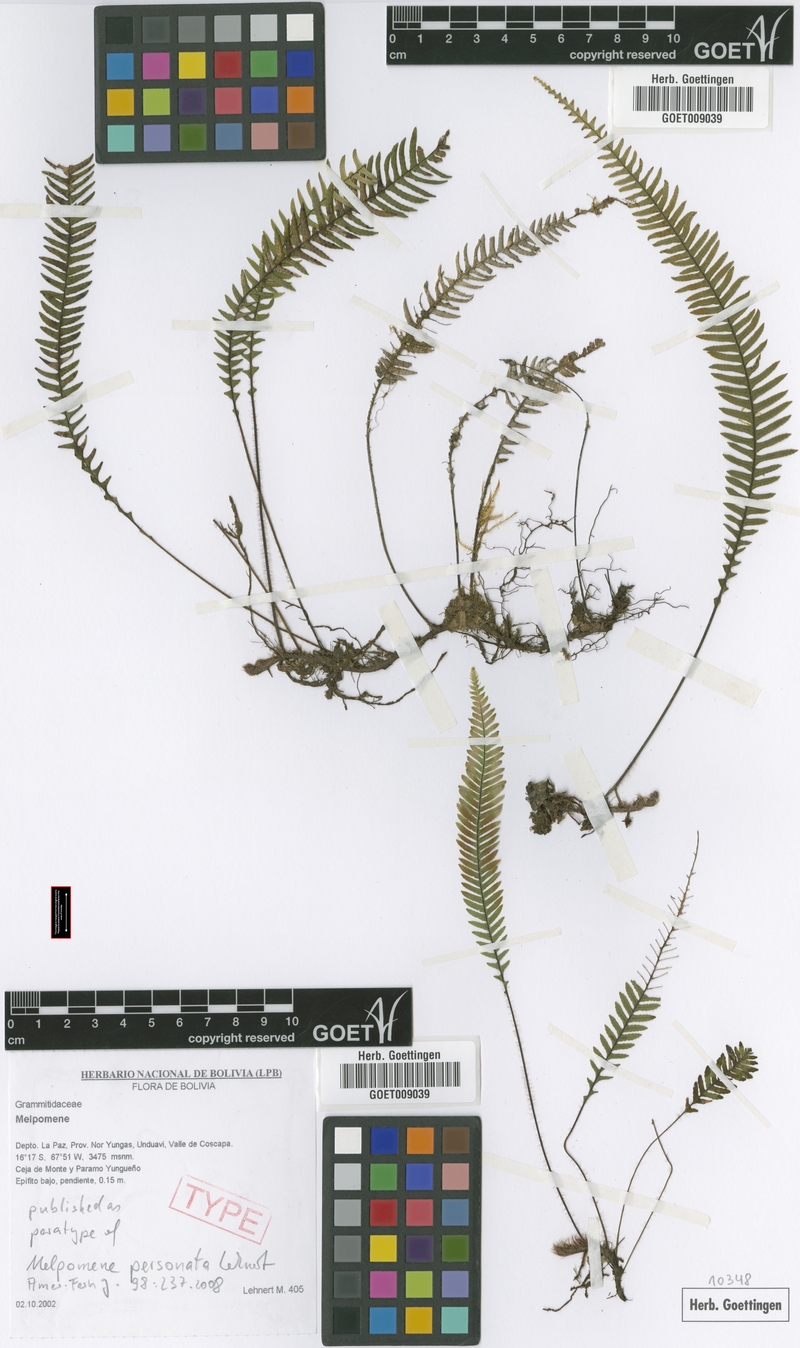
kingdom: Plantae
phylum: Tracheophyta
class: Polypodiopsida
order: Polypodiales
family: Polypodiaceae
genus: Melpomene
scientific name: Melpomene personata
